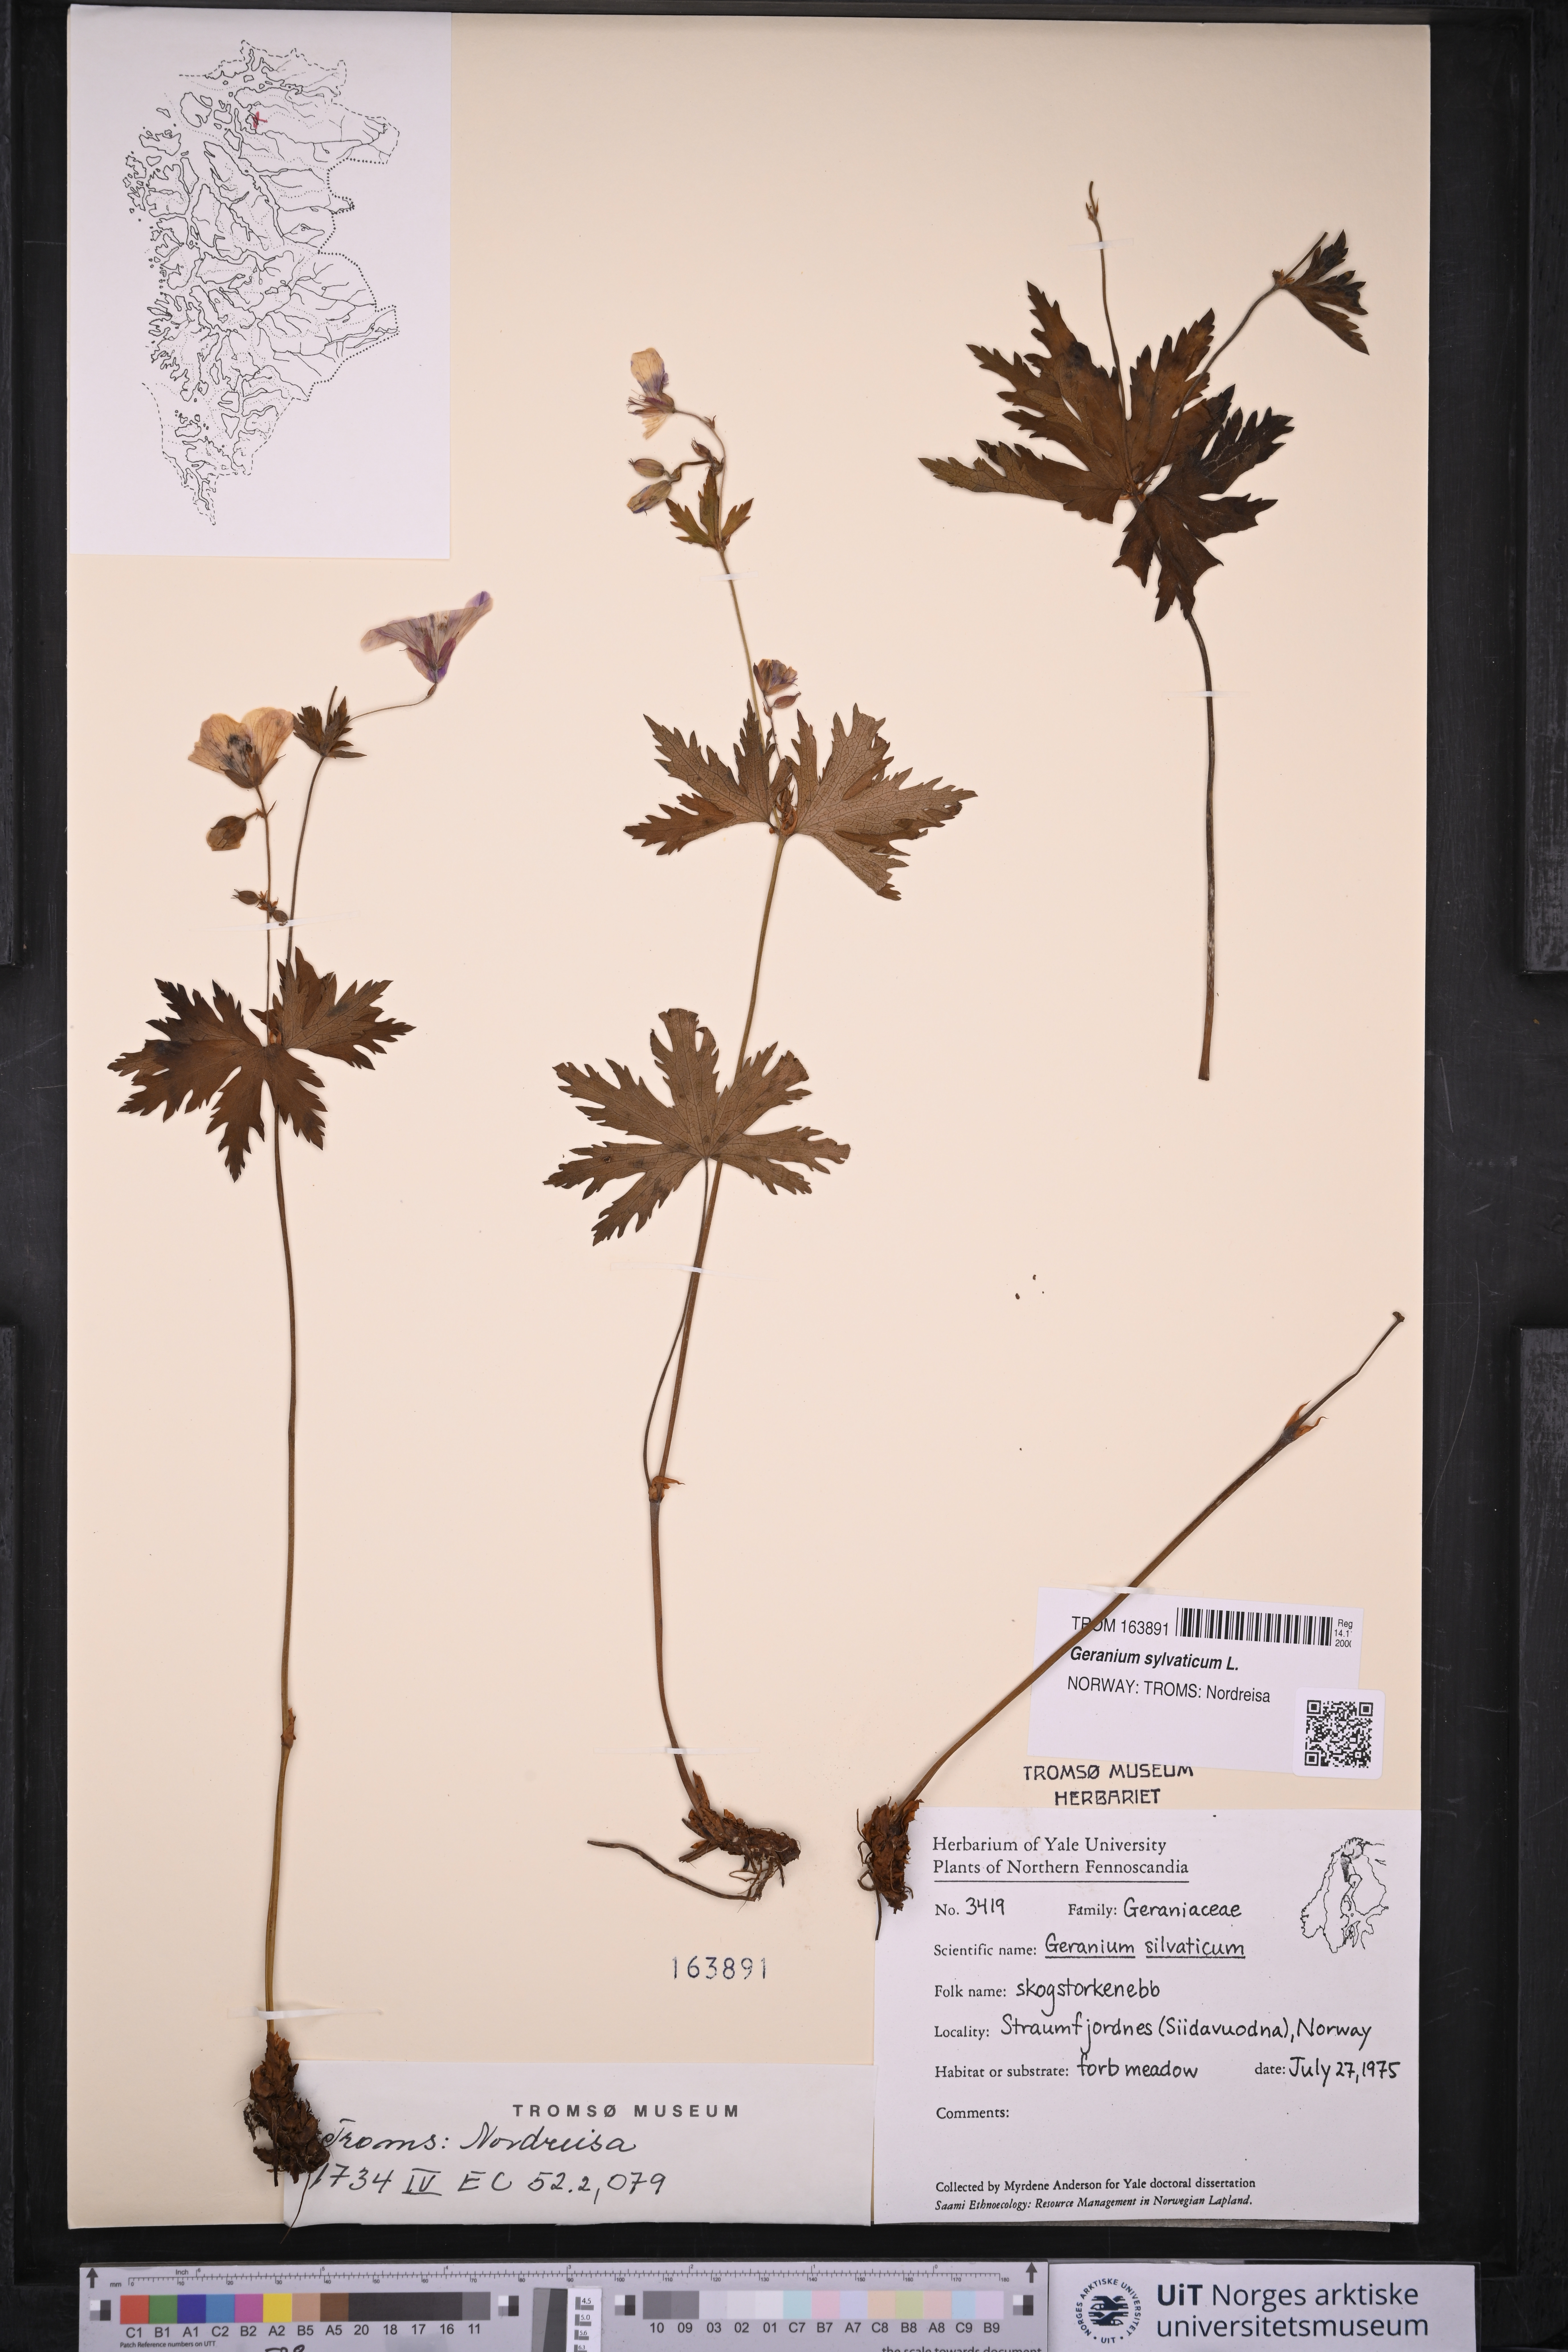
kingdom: Plantae
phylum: Tracheophyta
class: Magnoliopsida
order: Geraniales
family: Geraniaceae
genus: Geranium
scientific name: Geranium sylvaticum
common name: Wood crane's-bill
